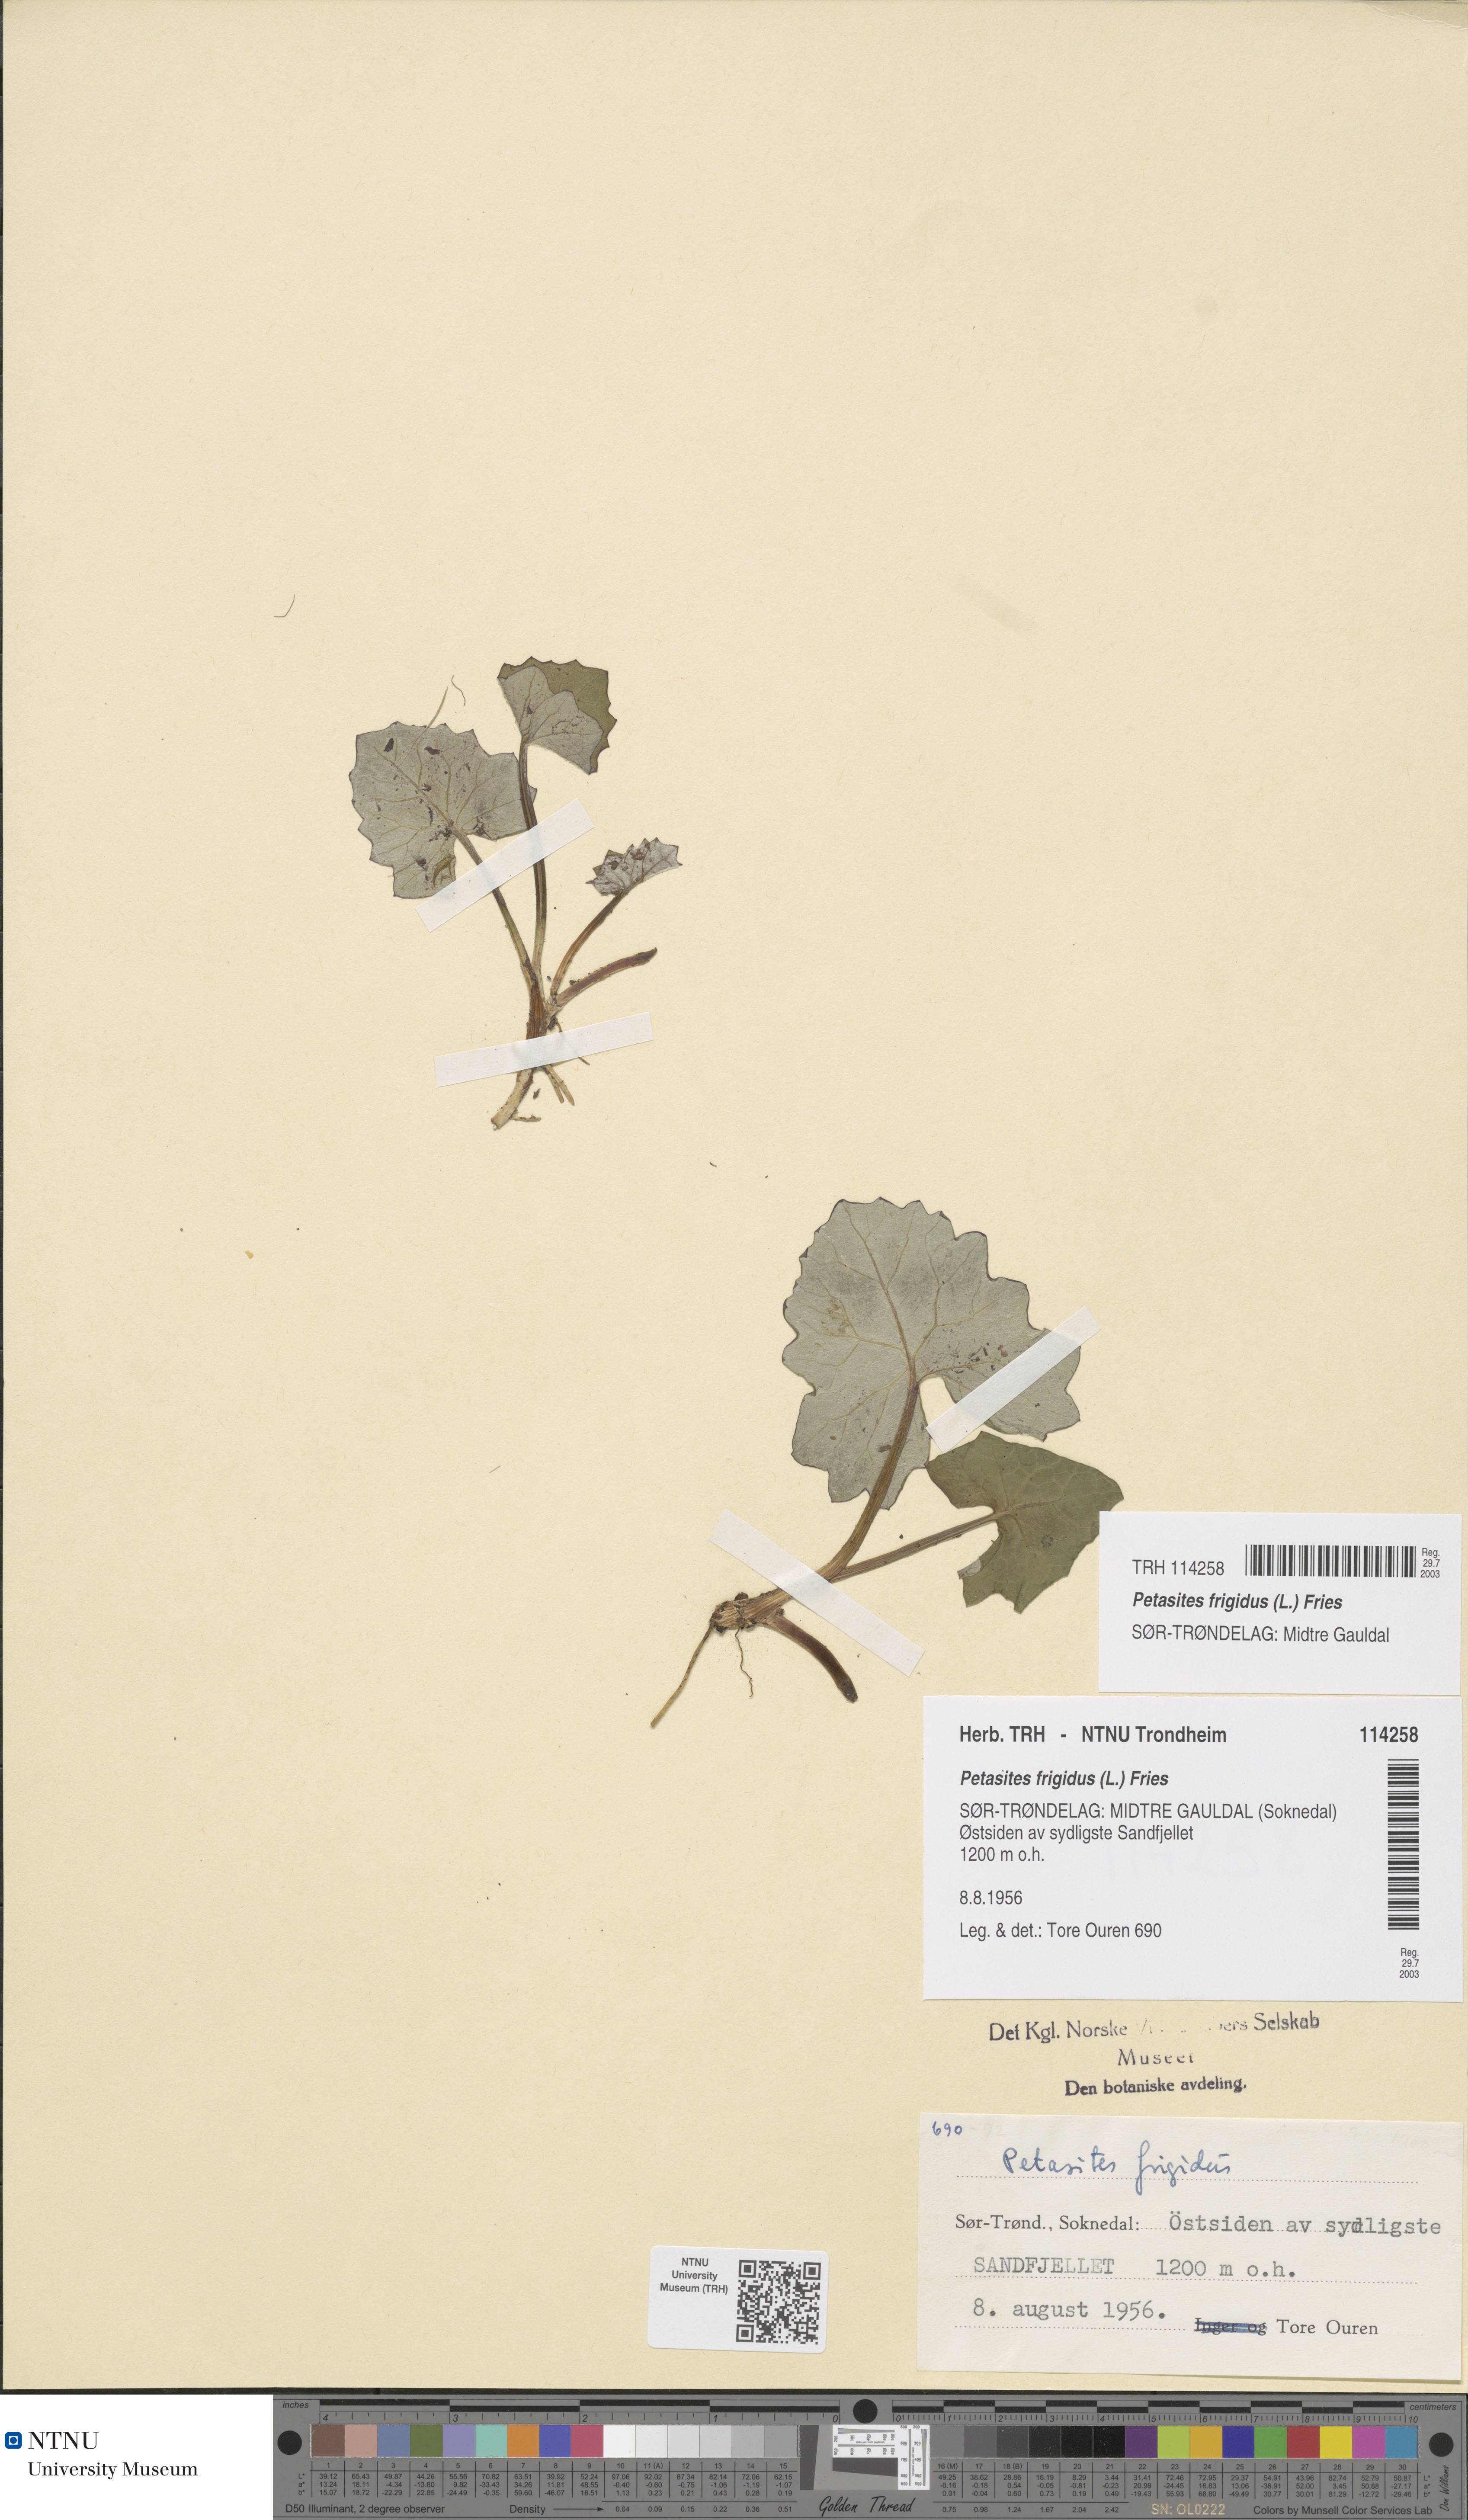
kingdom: Plantae
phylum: Tracheophyta
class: Magnoliopsida
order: Asterales
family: Asteraceae
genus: Petasites
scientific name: Petasites frigidus
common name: Arctic butterbur
